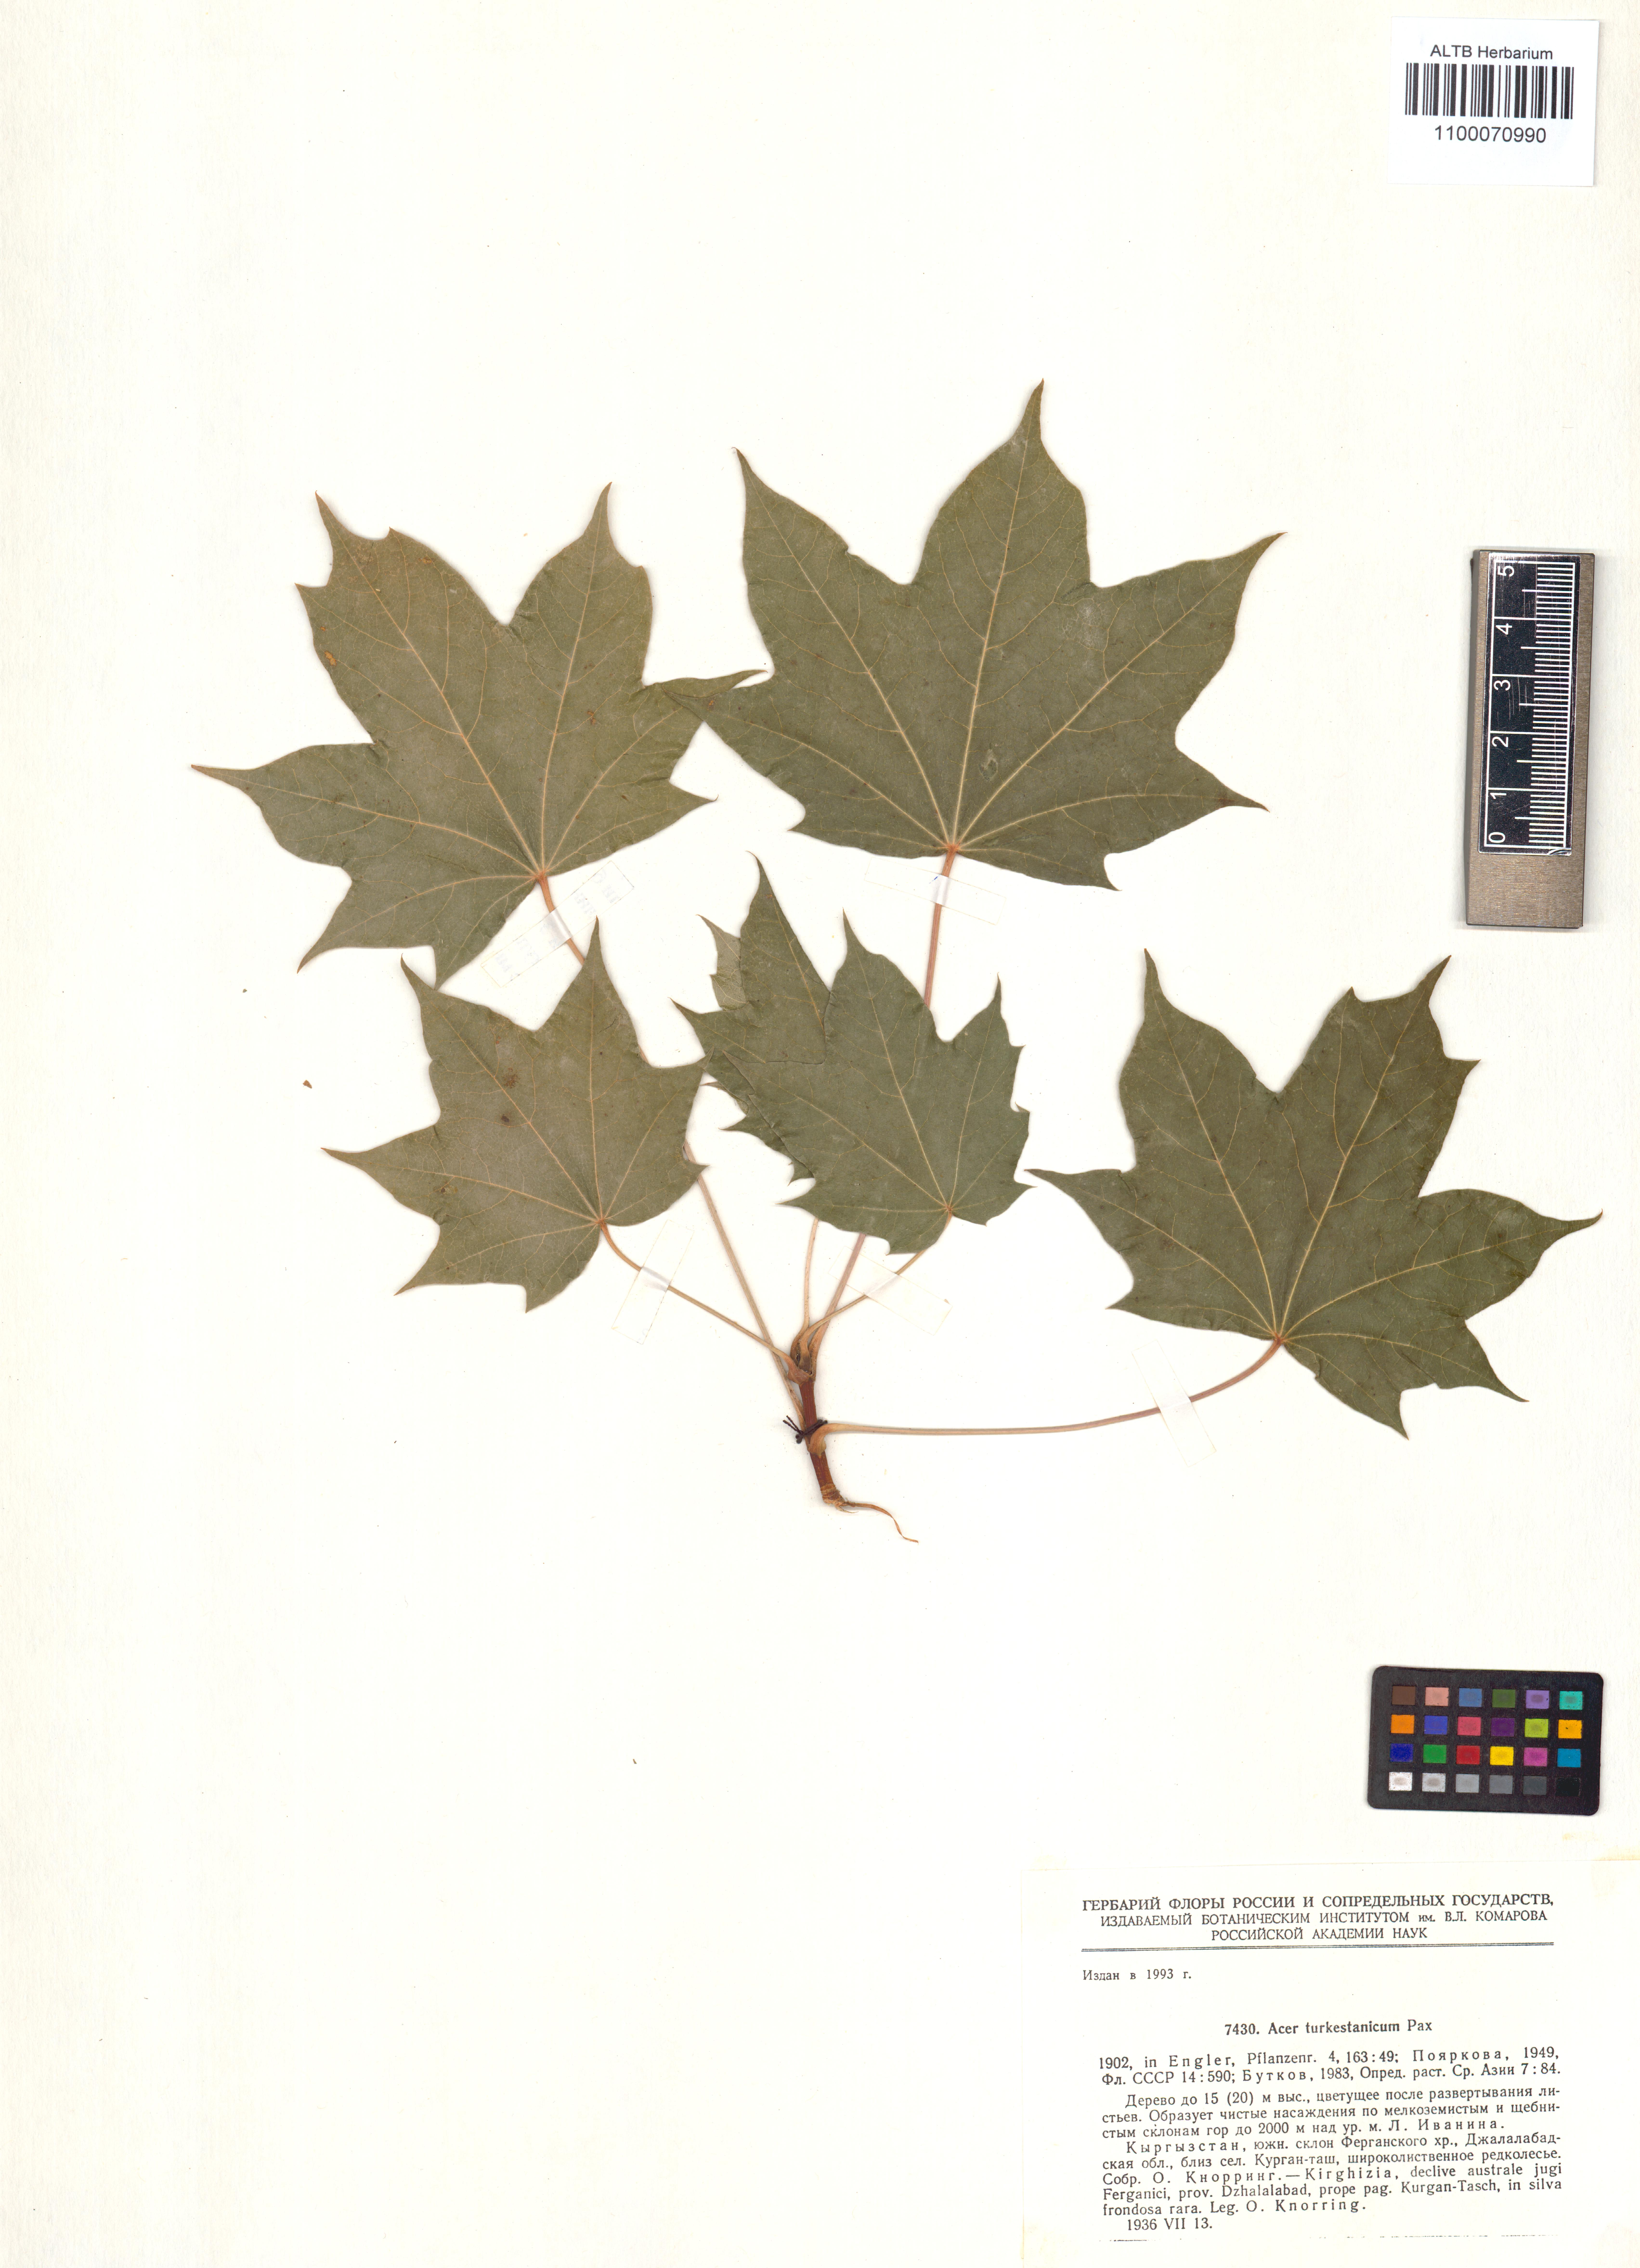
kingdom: Plantae
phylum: Tracheophyta
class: Magnoliopsida
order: Sapindales
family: Sapindaceae
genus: Acer
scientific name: Acer monspessulanum
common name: Montpellier maple
